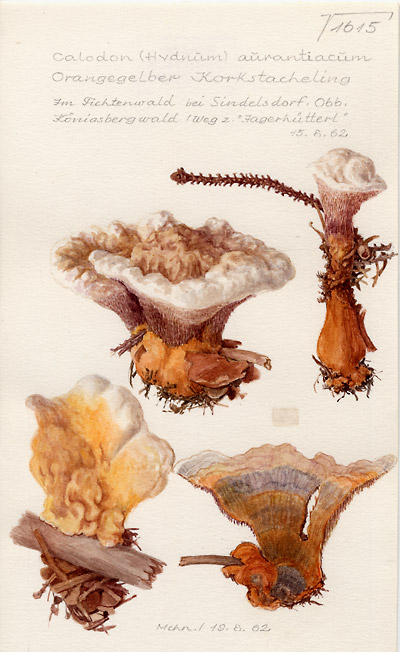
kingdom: Fungi
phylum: Basidiomycota
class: Agaricomycetes
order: Thelephorales
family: Bankeraceae
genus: Hydnellum
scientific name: Hydnellum aurantiacum
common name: Orange tooth
